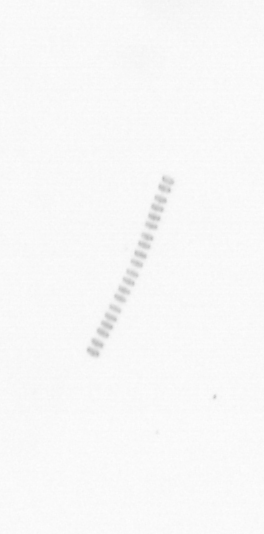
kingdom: Chromista
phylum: Ochrophyta
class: Bacillariophyceae
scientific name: Bacillariophyceae
